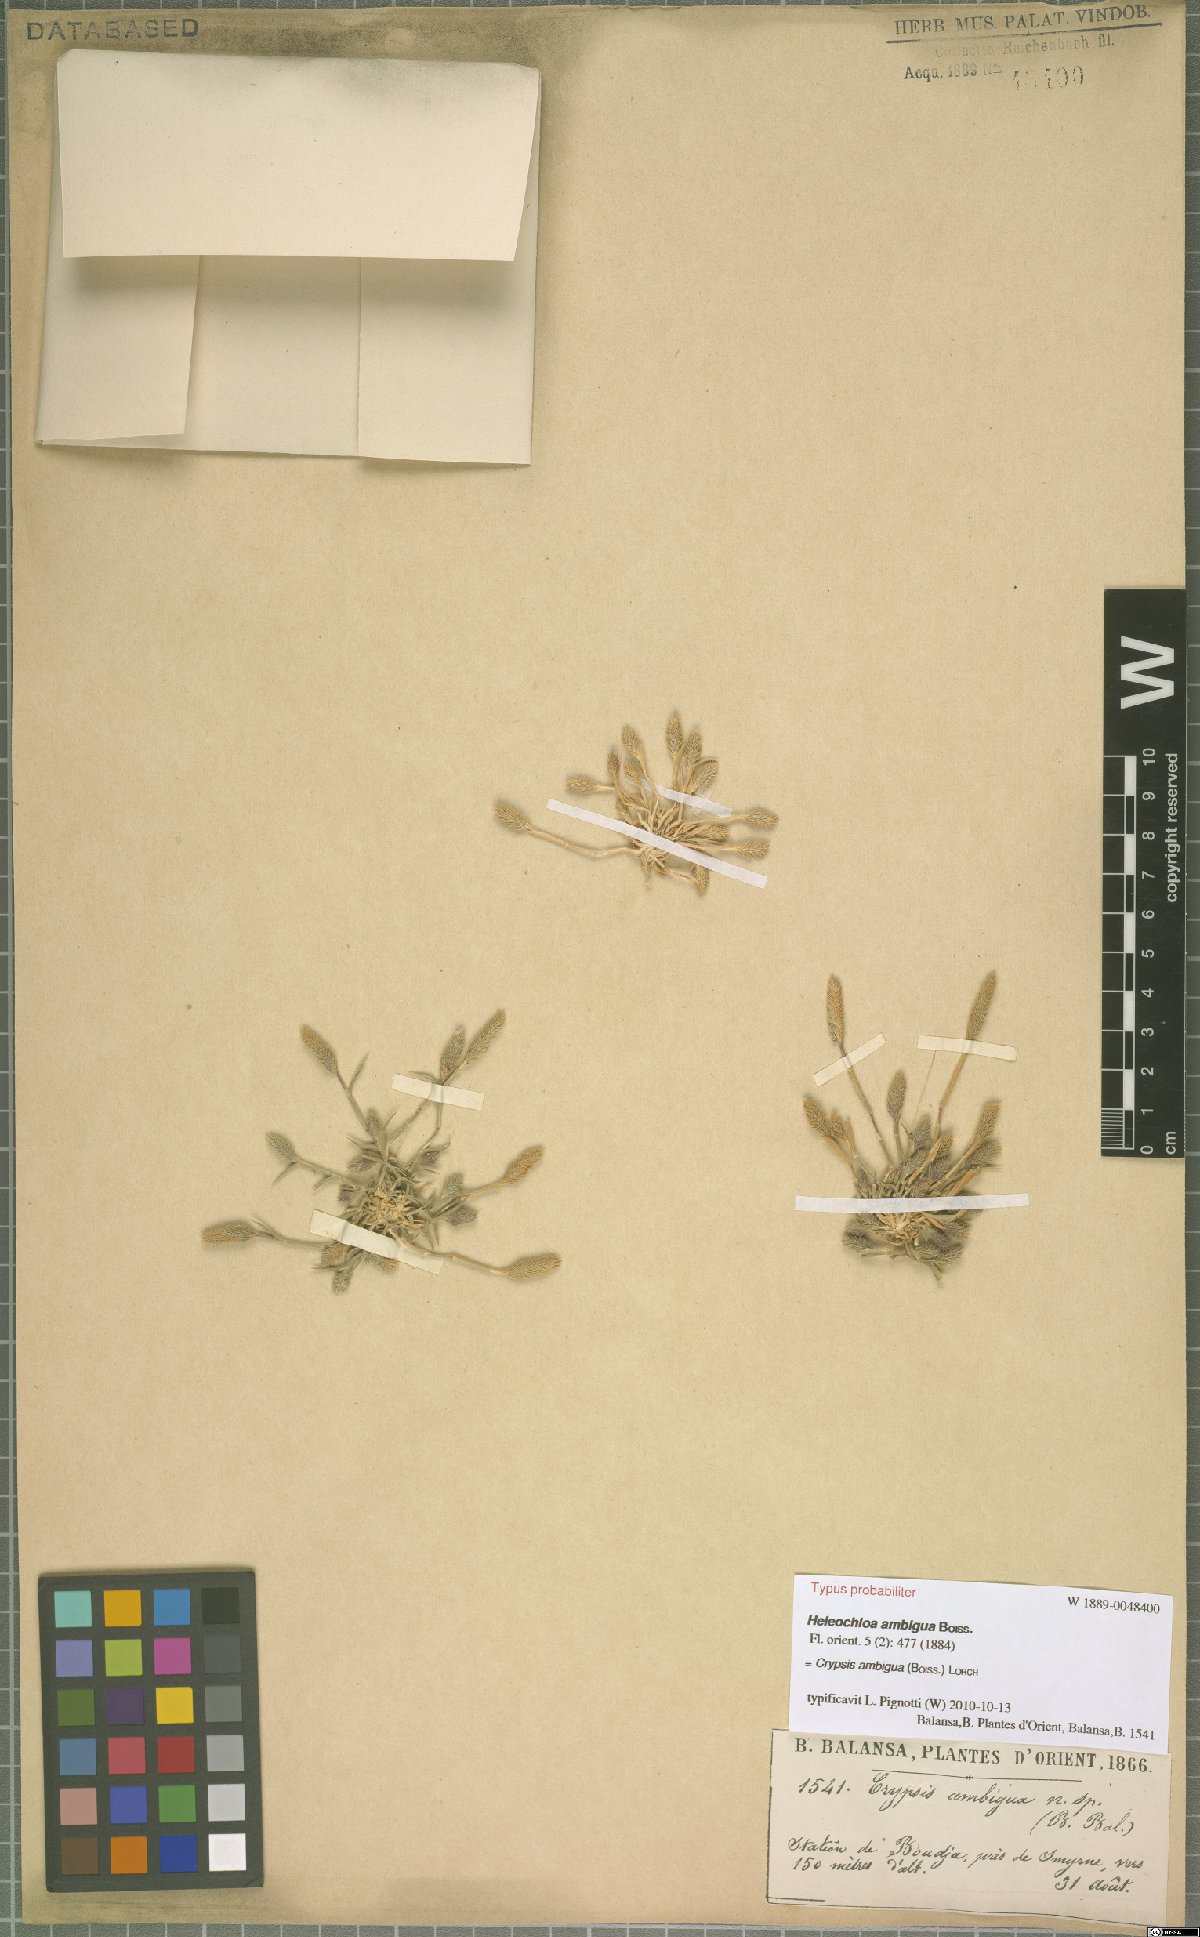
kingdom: Plantae
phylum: Tracheophyta
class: Liliopsida
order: Poales
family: Poaceae
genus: Sporobolus
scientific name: Sporobolus borszczowii
